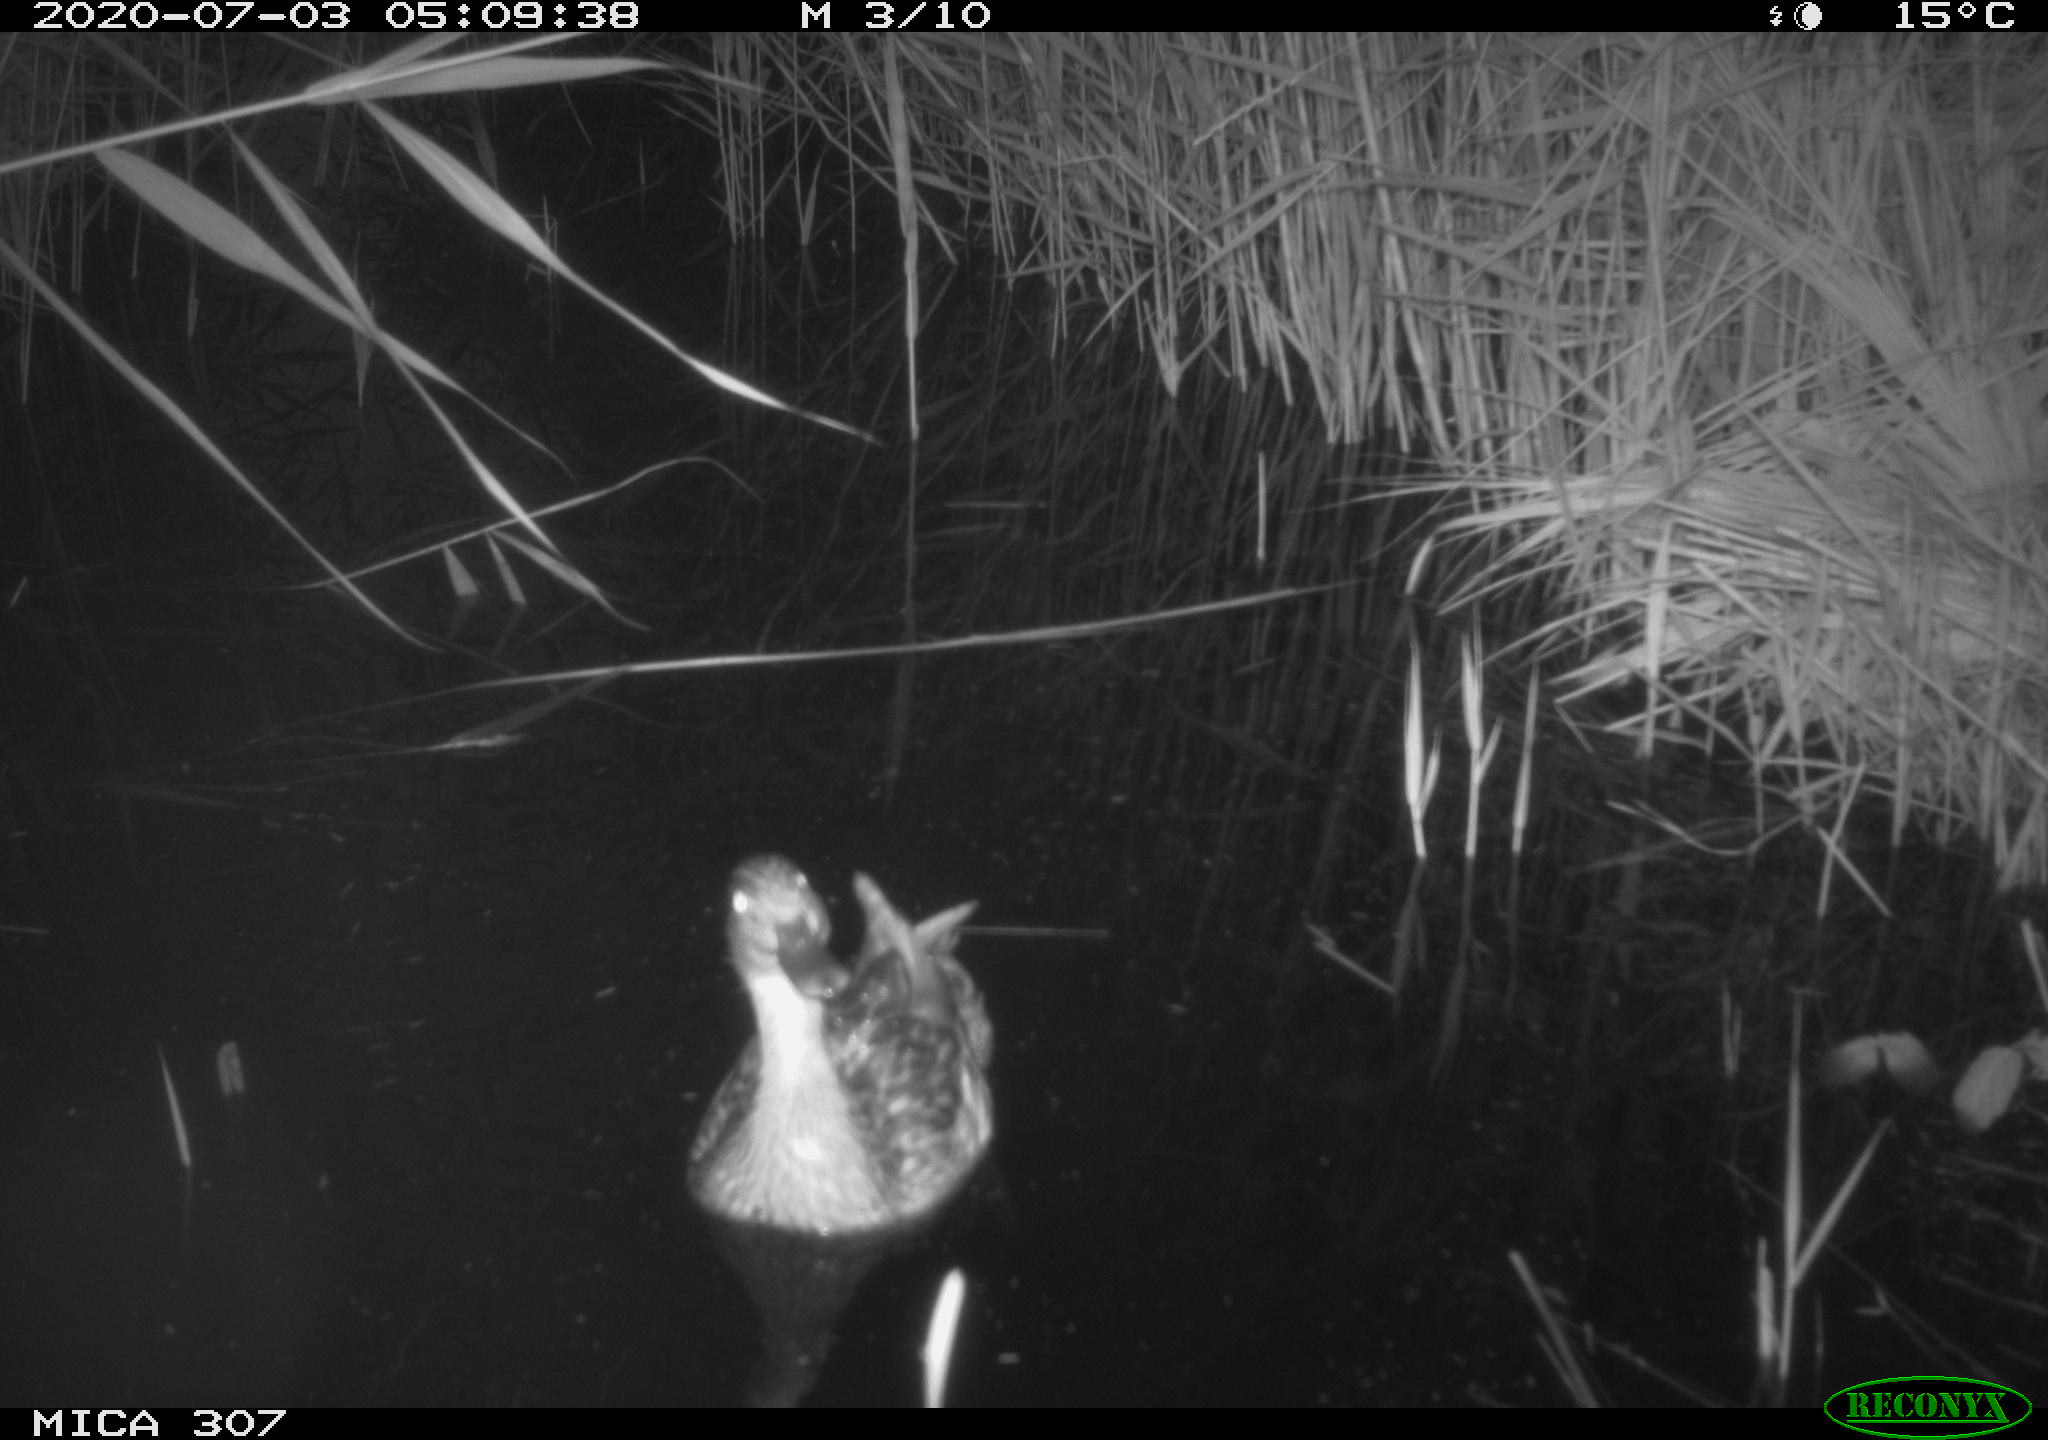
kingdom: Animalia
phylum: Chordata
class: Aves
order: Anseriformes
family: Anatidae
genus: Anas
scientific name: Anas platyrhynchos
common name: Mallard
